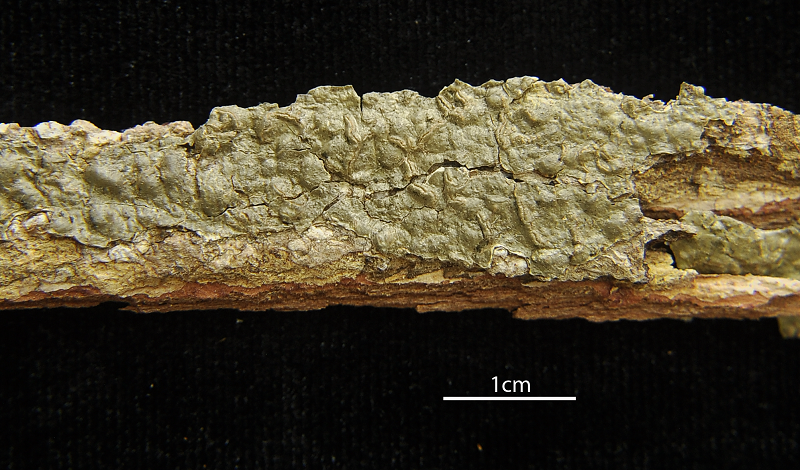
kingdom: Fungi
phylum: Ascomycota
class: Lecanoromycetes
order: Ostropales
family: Graphidaceae
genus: Fissurina
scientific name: Fissurina elaiocarpa
